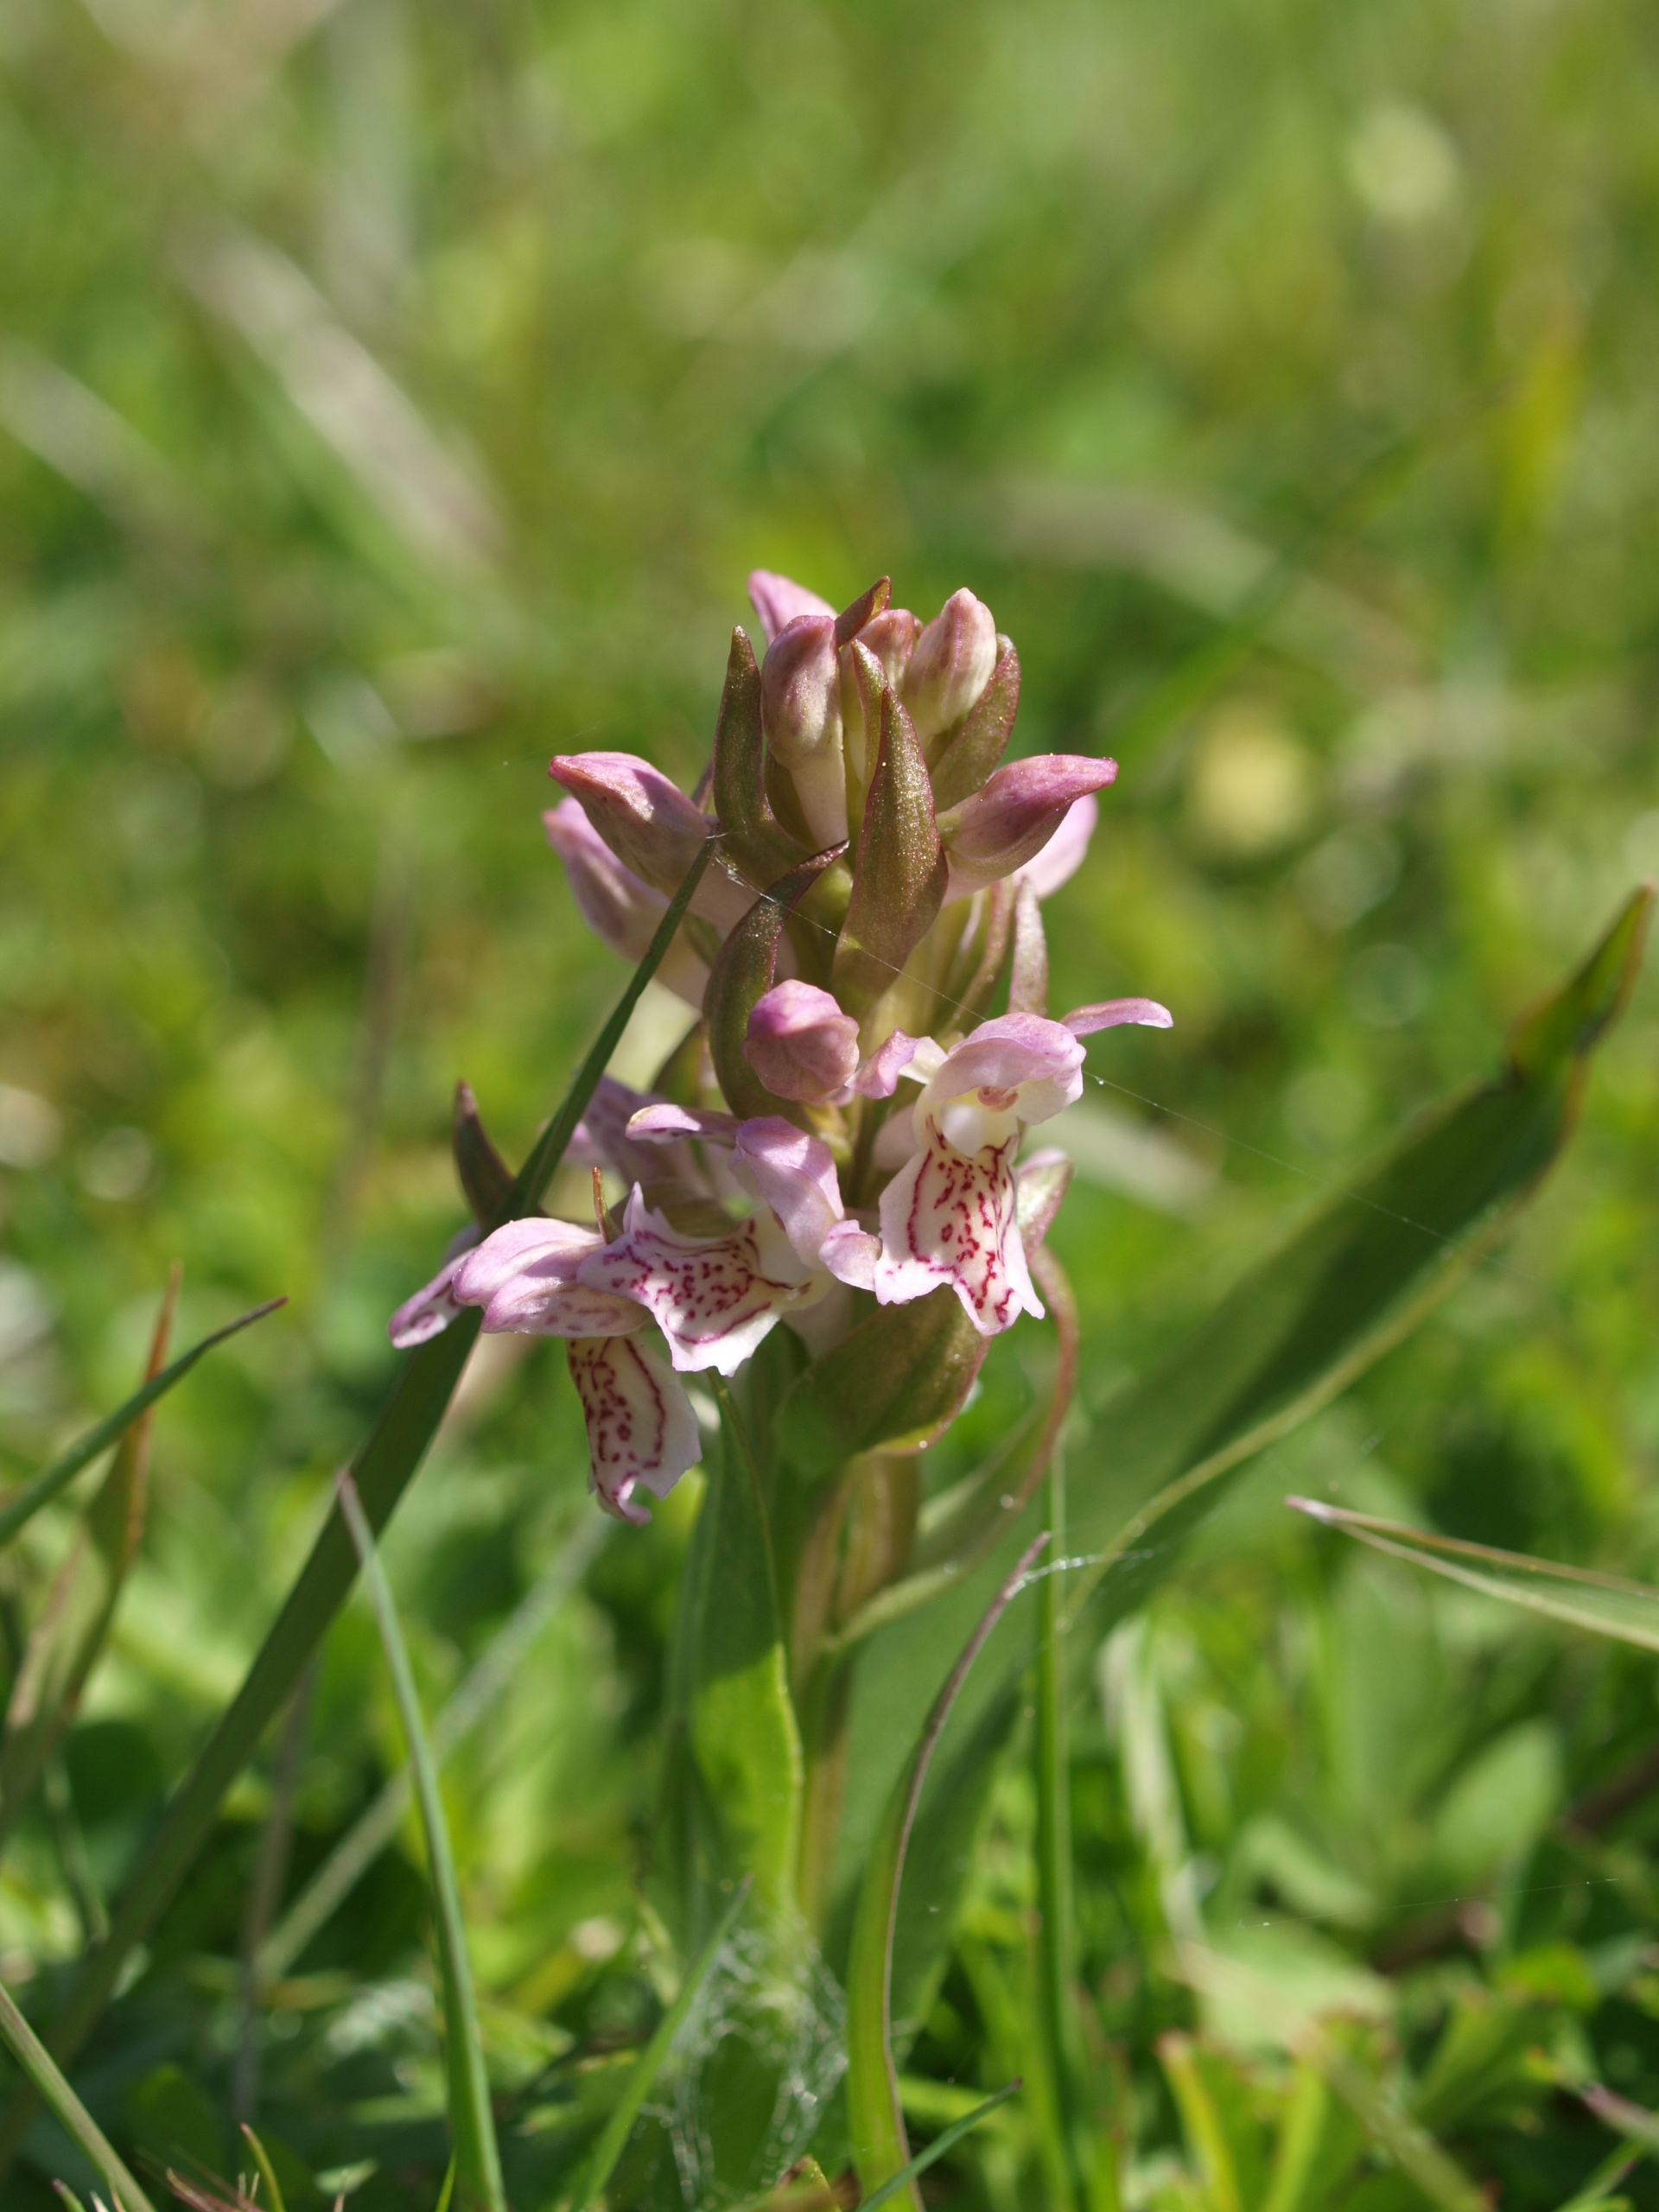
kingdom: Plantae
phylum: Tracheophyta
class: Liliopsida
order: Asparagales
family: Orchidaceae
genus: Dactylorhiza
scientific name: Dactylorhiza incarnata
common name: Kødfarvet gøgeurt
